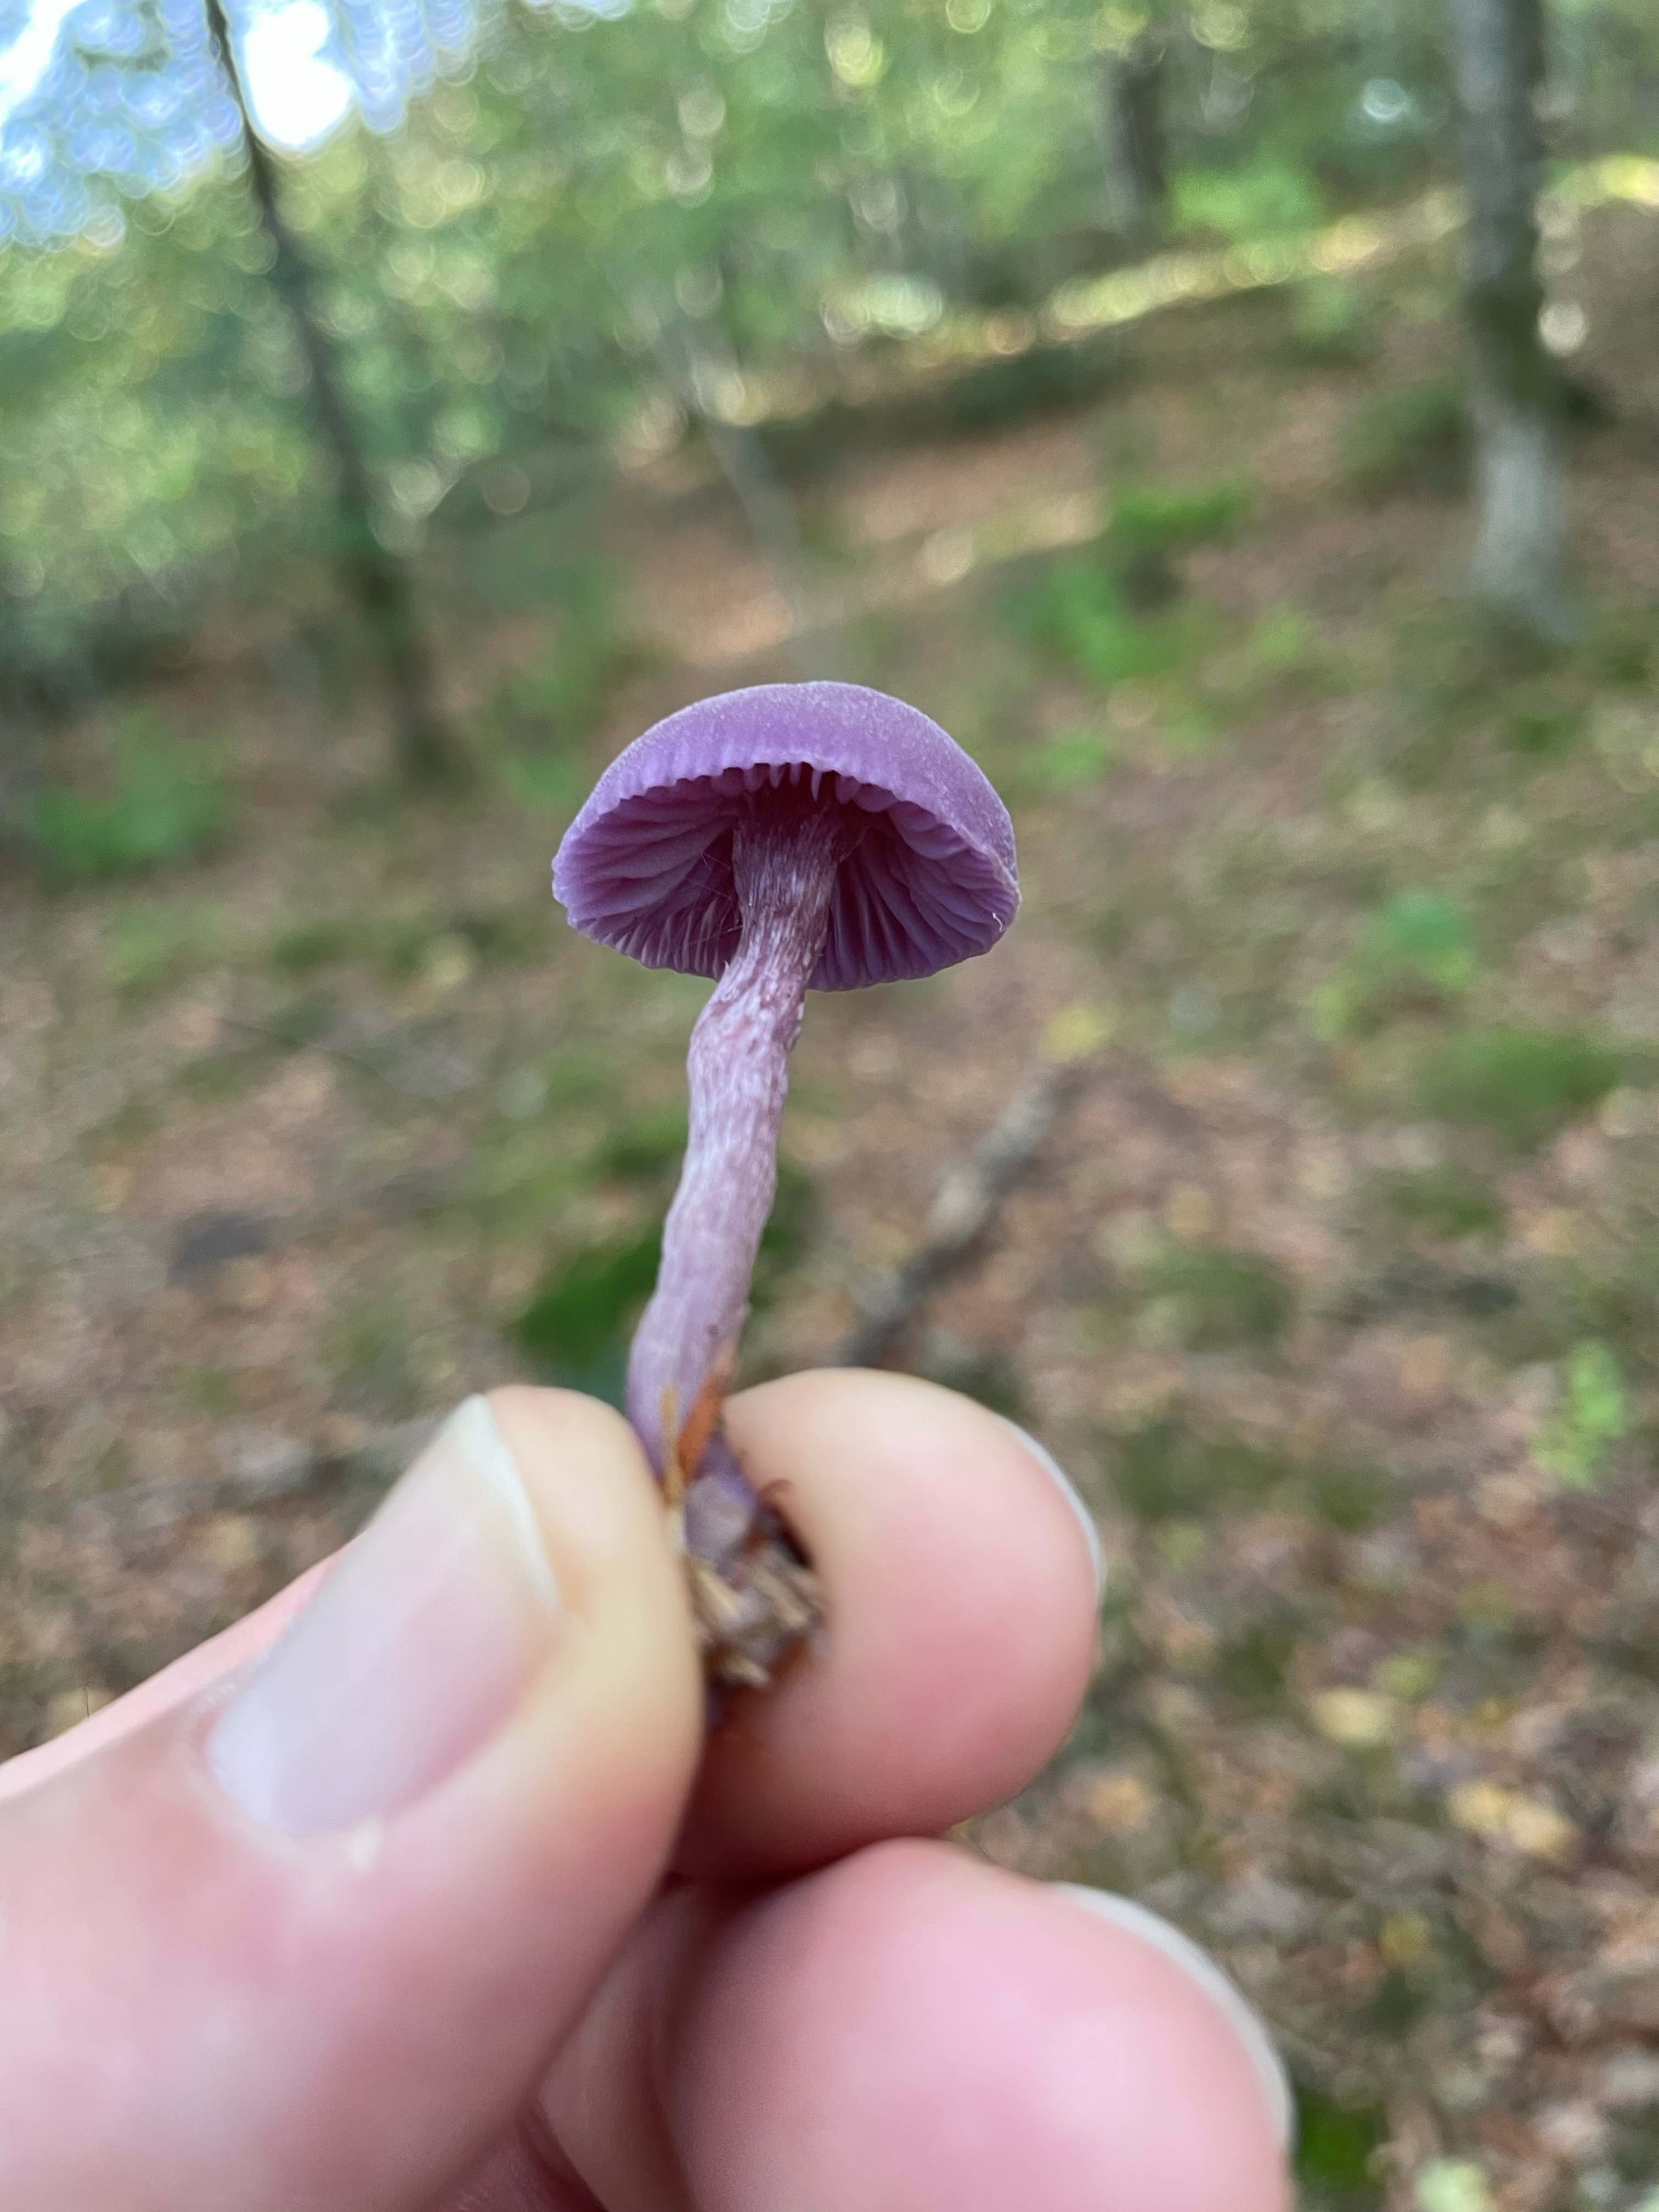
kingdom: Fungi
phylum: Basidiomycota
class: Agaricomycetes
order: Agaricales
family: Hydnangiaceae
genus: Laccaria
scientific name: Laccaria amethystina
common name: violet ametysthat
